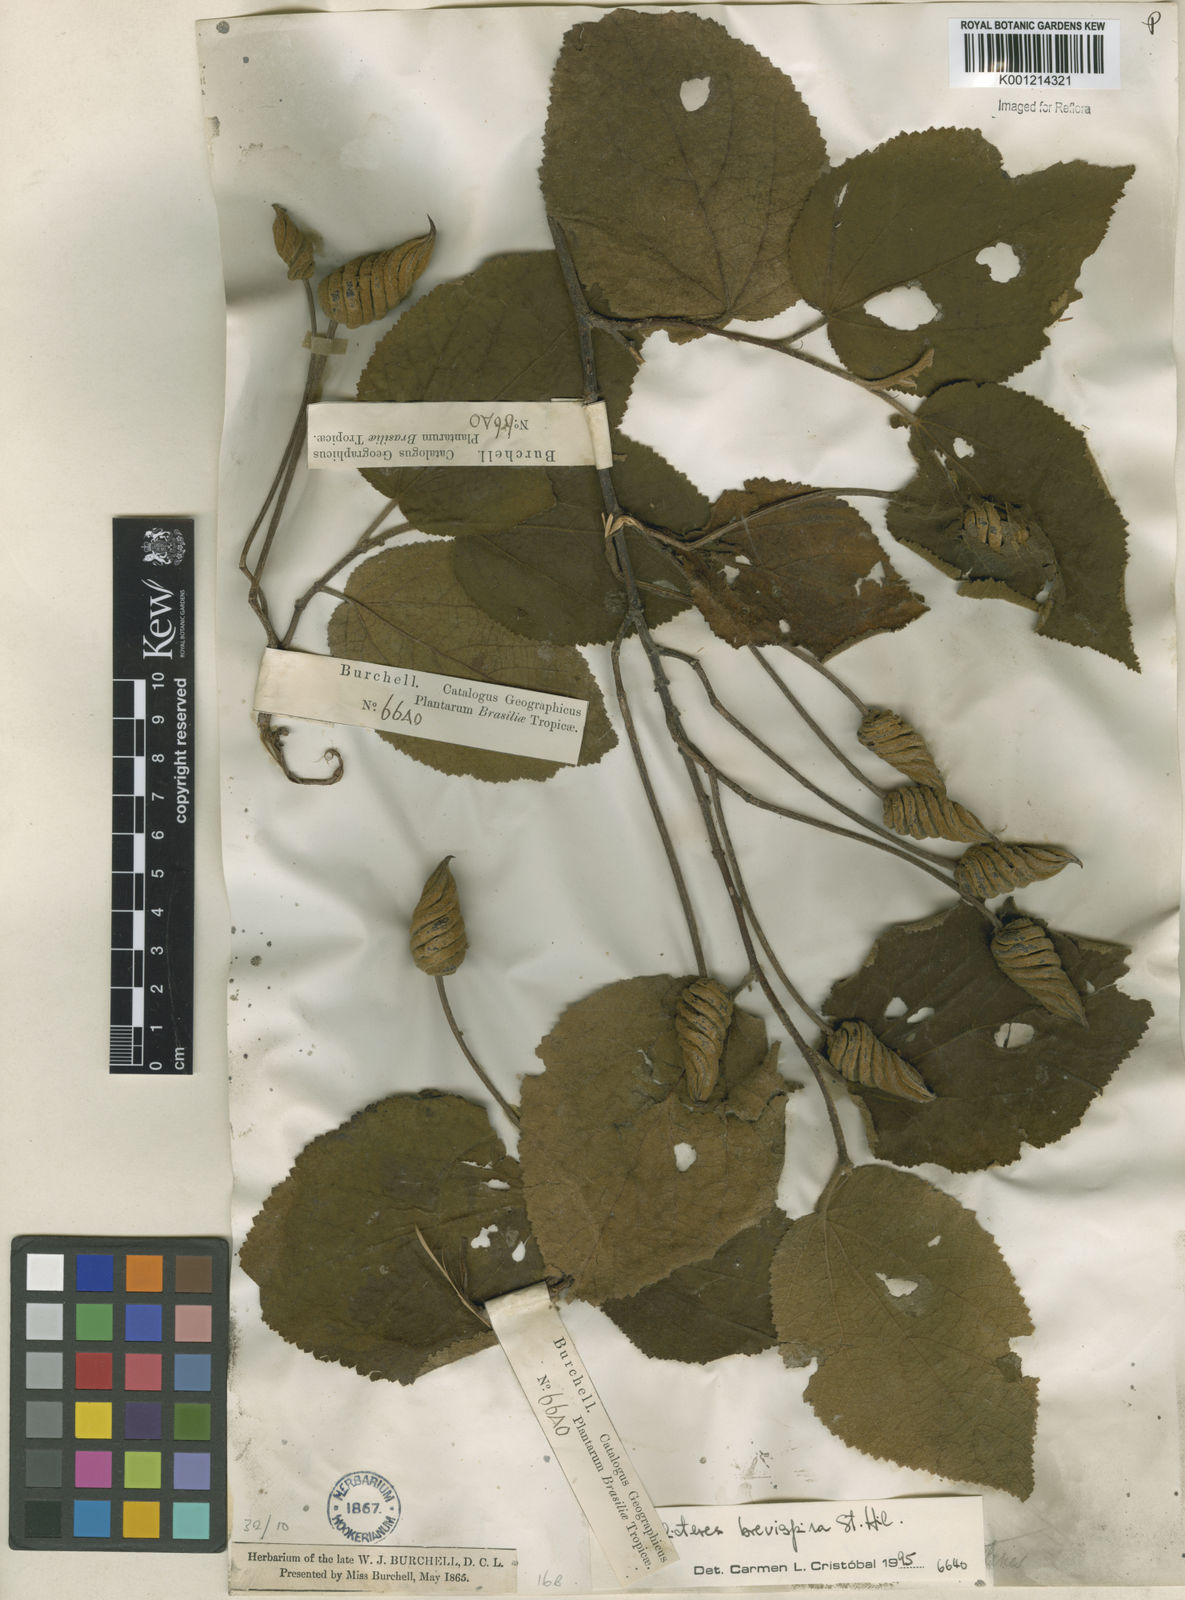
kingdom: Plantae
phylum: Tracheophyta
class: Magnoliopsida
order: Malvales
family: Malvaceae
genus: Helicteres
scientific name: Helicteres
